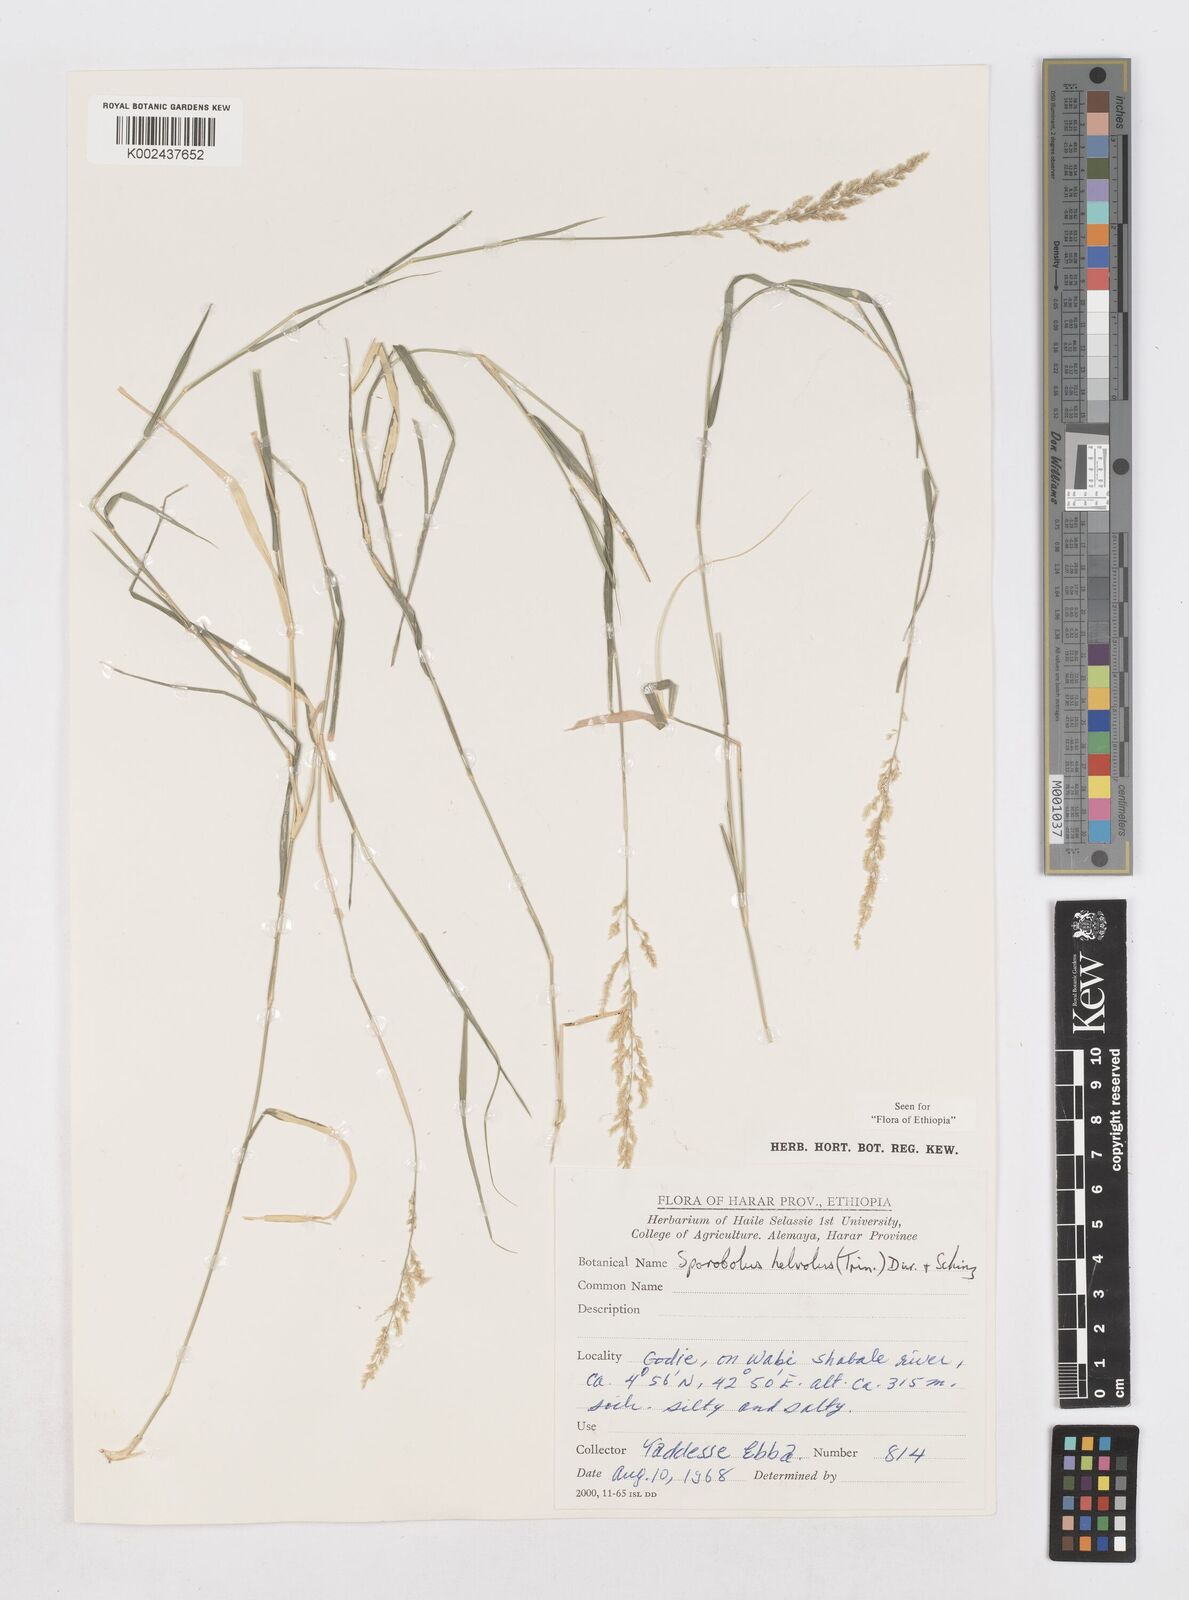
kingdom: Plantae
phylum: Tracheophyta
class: Liliopsida
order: Poales
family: Poaceae
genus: Sporobolus
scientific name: Sporobolus helvolus
